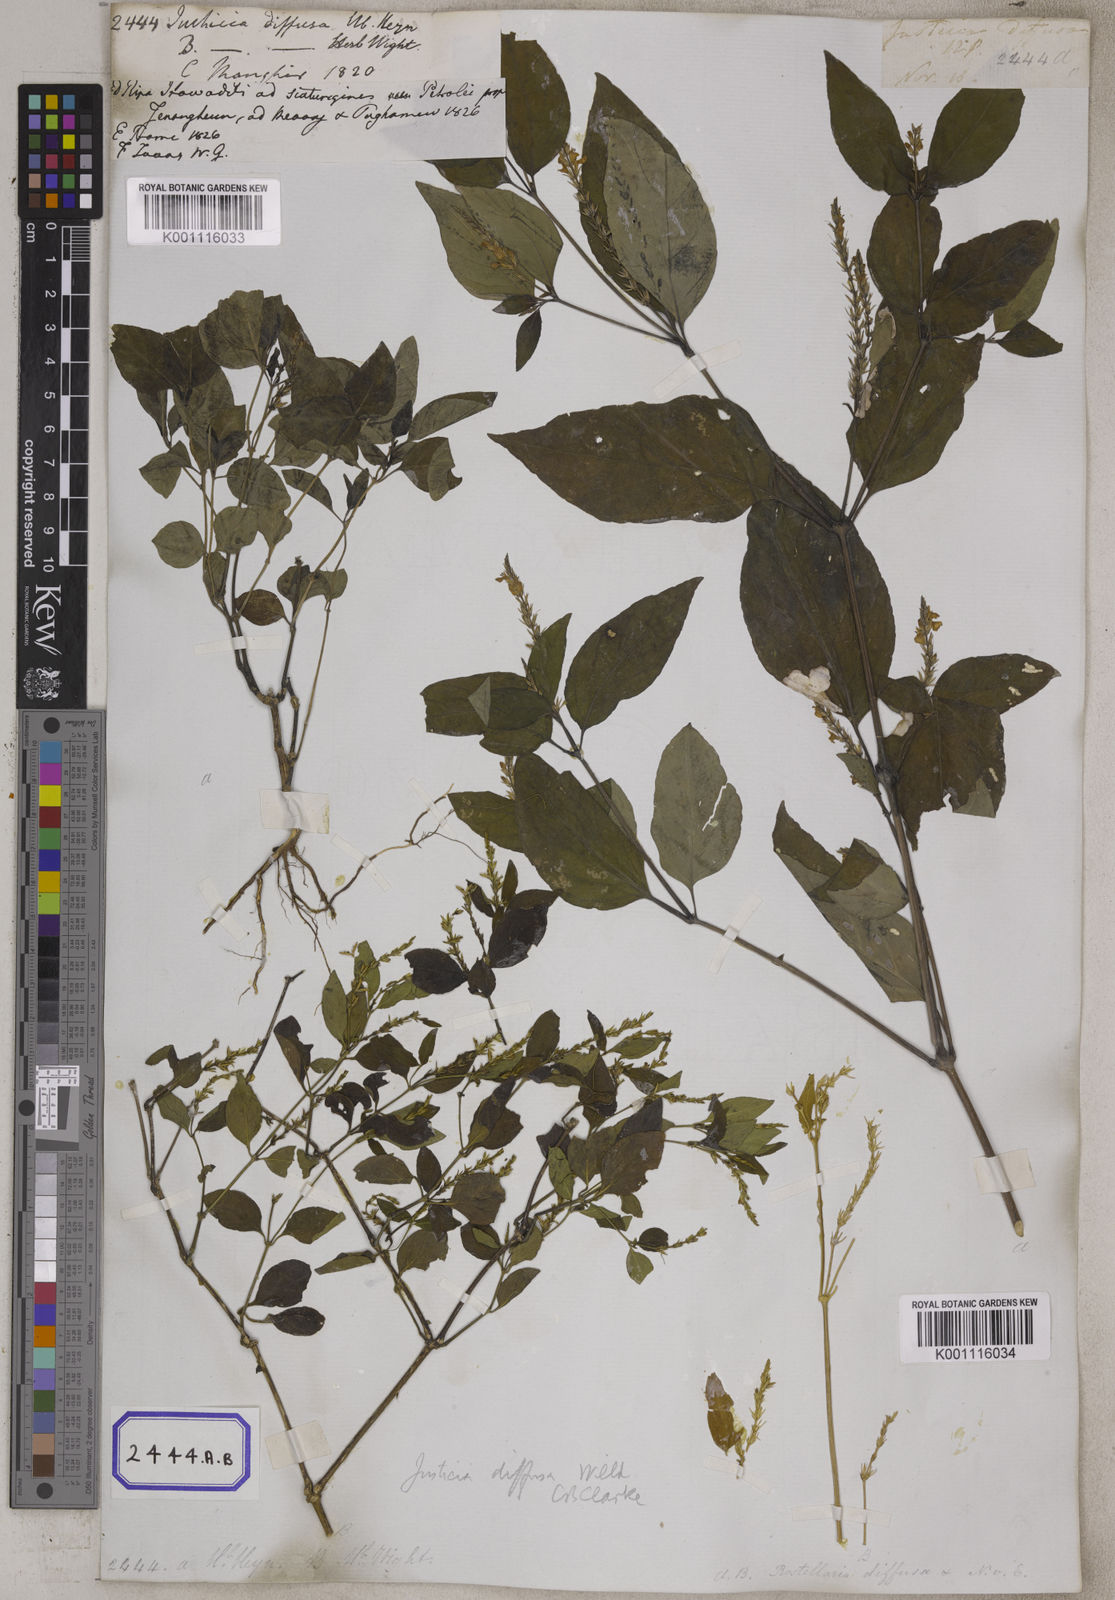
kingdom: Plantae
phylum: Tracheophyta
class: Magnoliopsida
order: Lamiales
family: Acanthaceae
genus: Justicia
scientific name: Justicia
